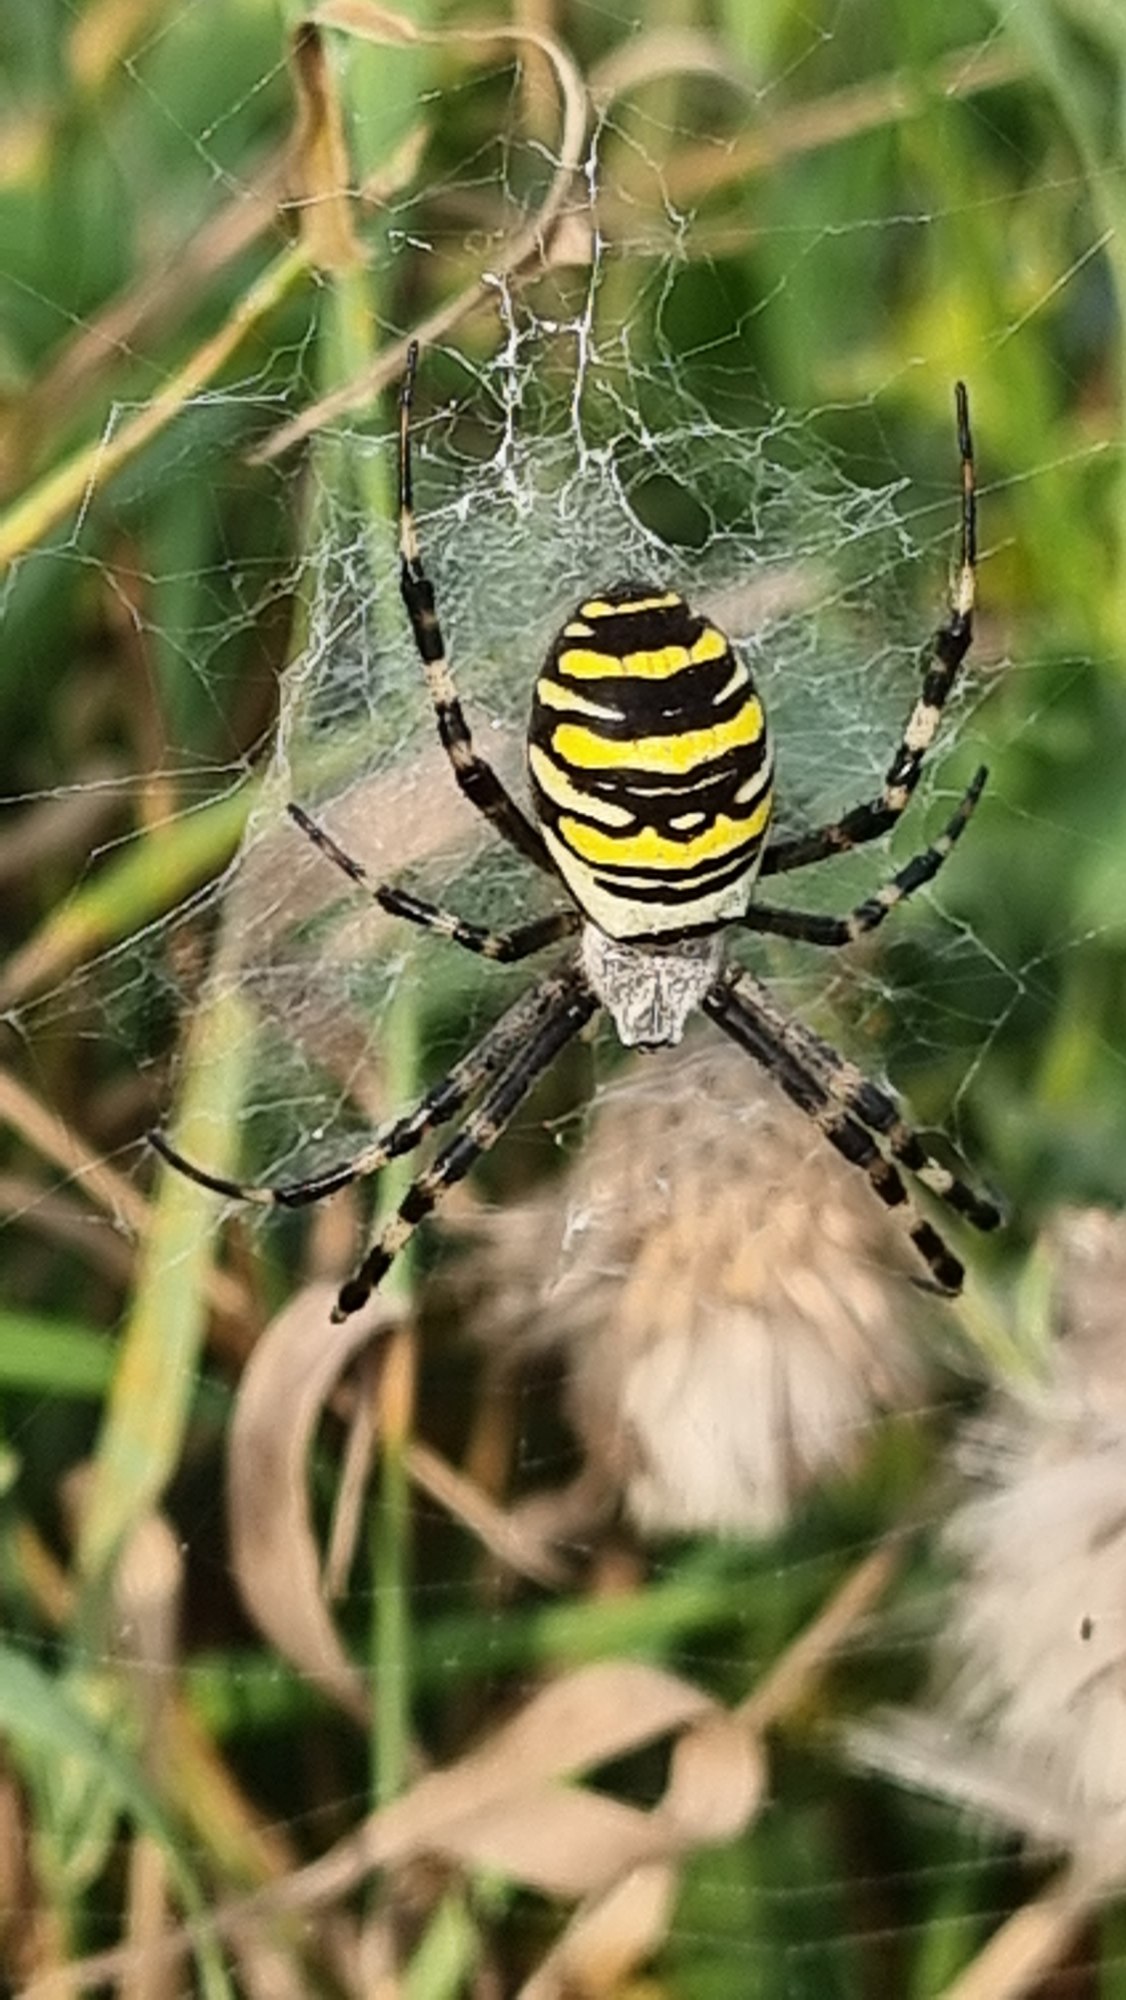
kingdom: Animalia
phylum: Arthropoda
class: Arachnida
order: Araneae
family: Araneidae
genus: Argiope
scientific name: Argiope bruennichi
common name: Hvepseedderkop
